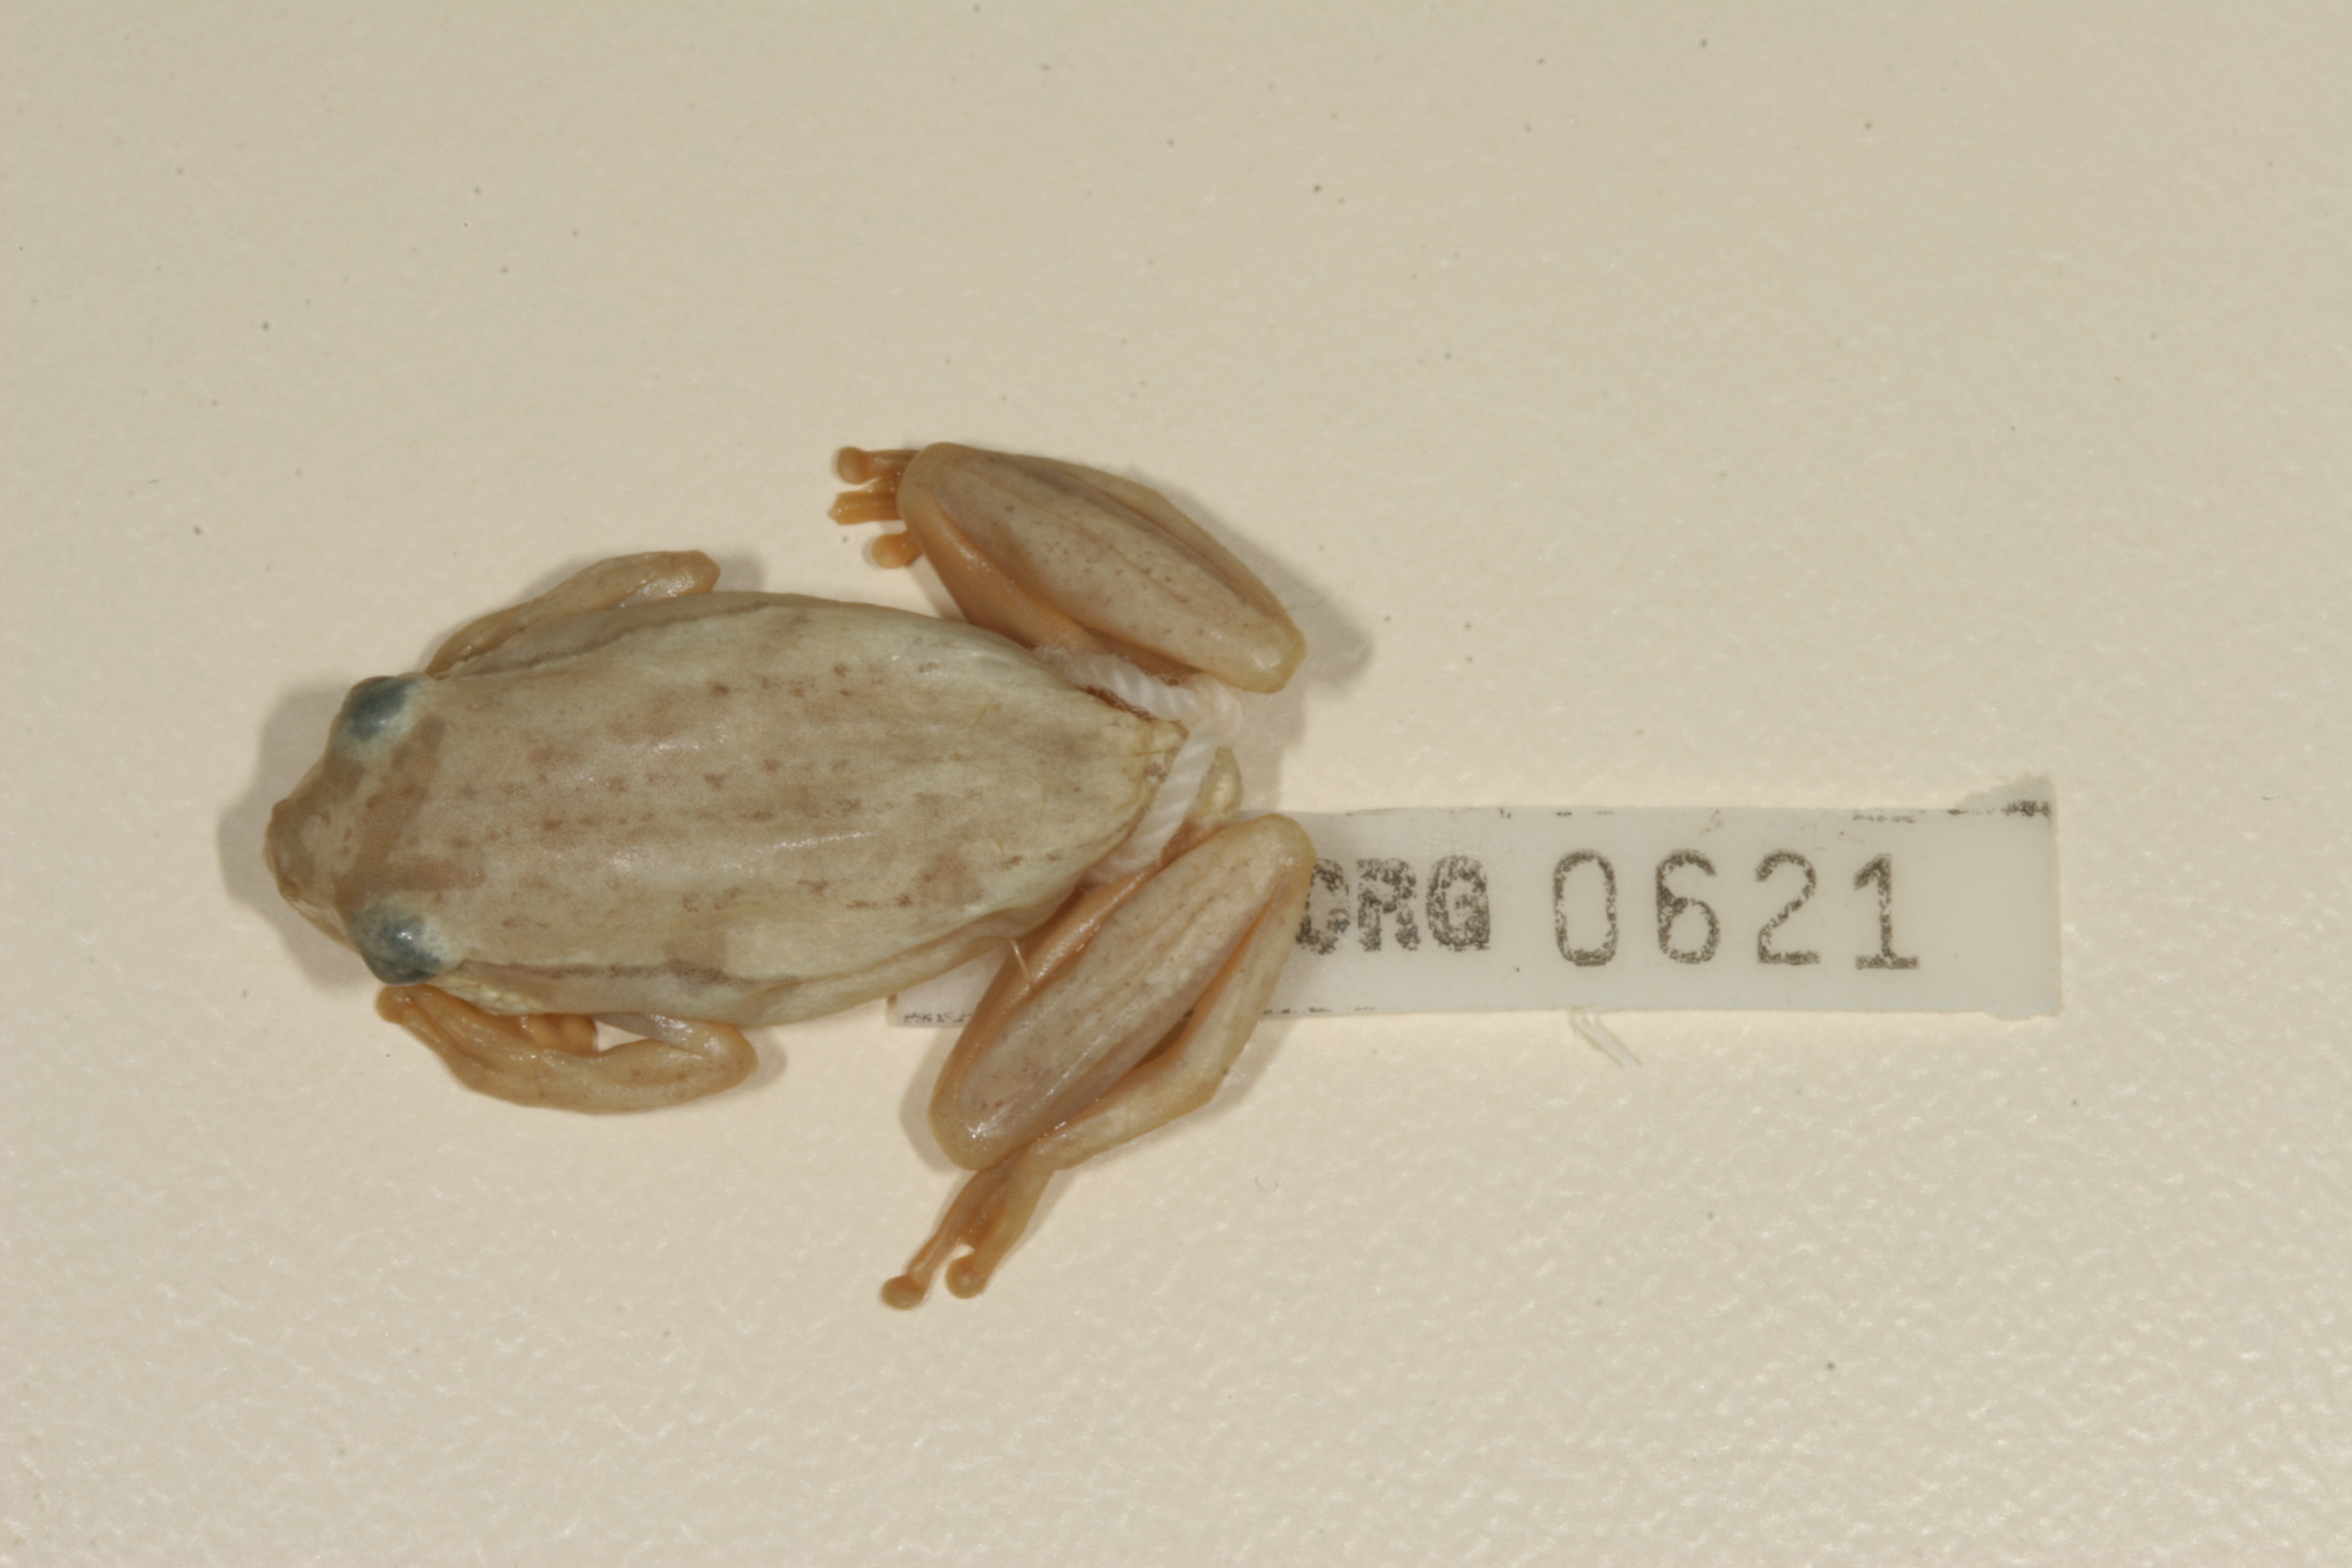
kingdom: Animalia
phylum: Chordata
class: Amphibia
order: Anura
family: Hyperoliidae
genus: Hyperolius
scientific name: Hyperolius marmoratus
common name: Painted reed frog
